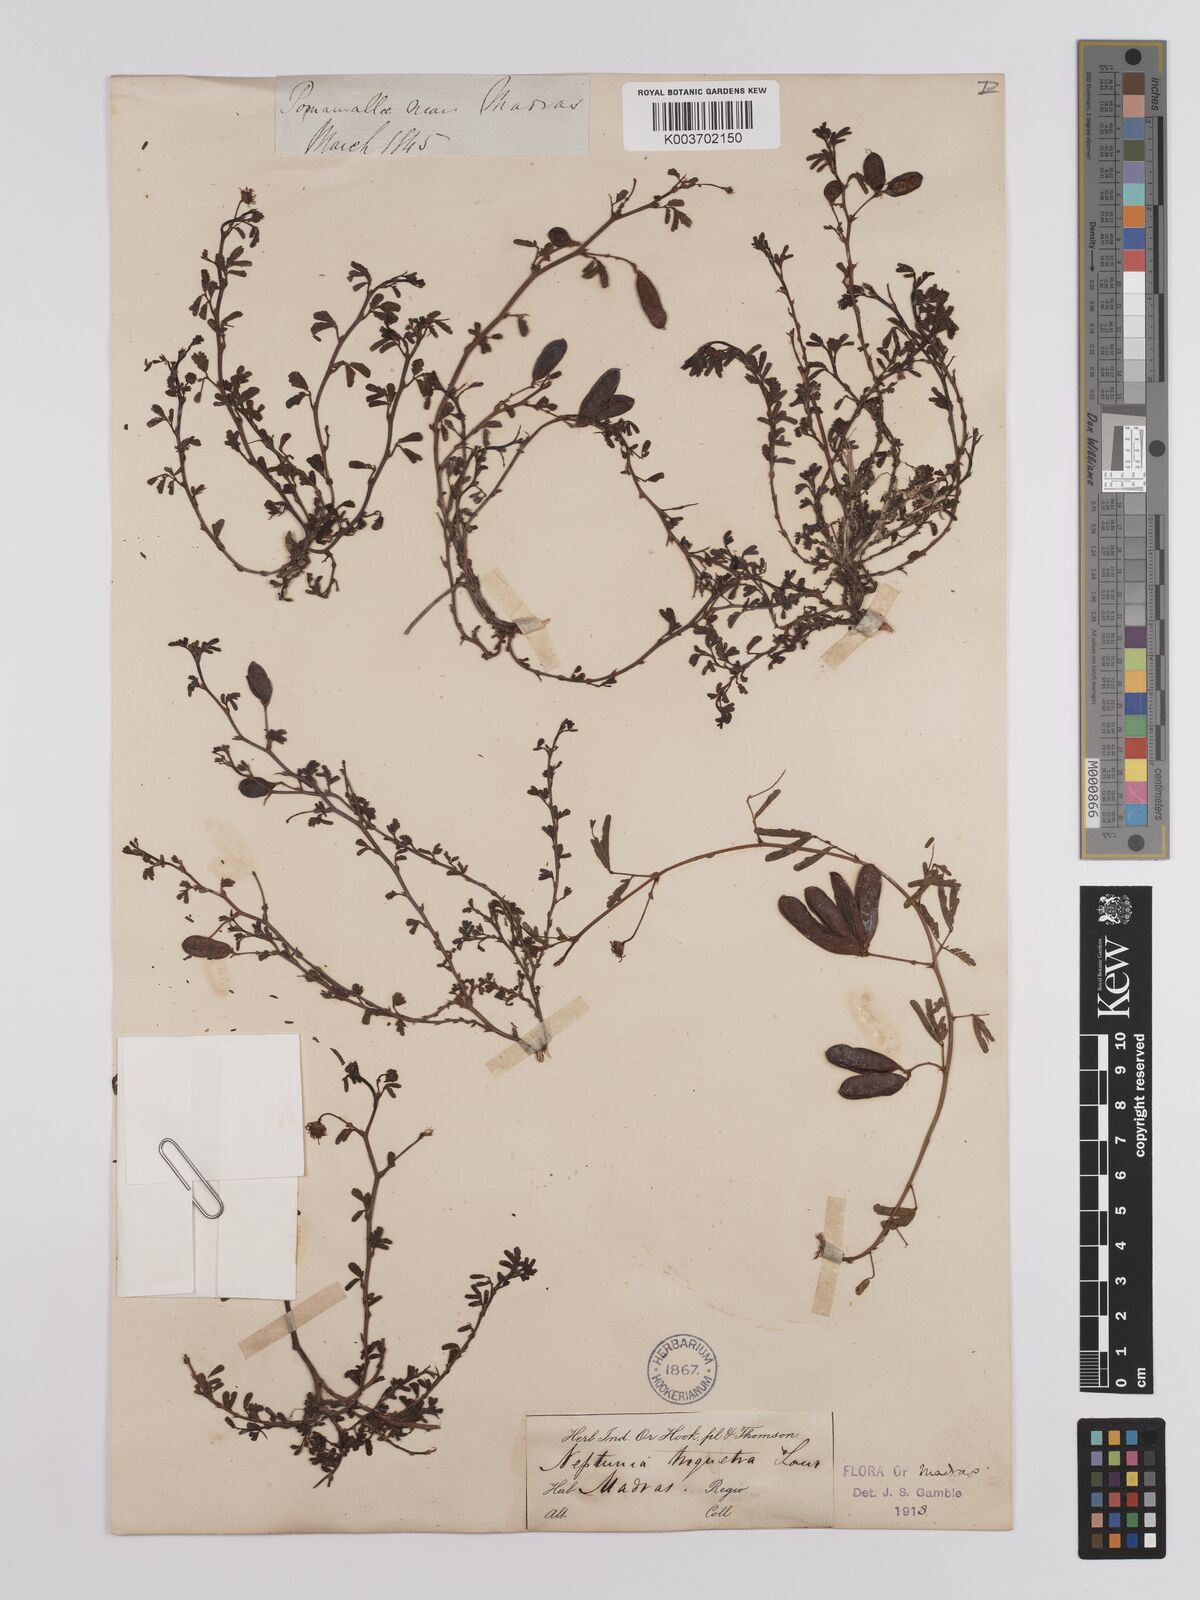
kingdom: Plantae
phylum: Tracheophyta
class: Magnoliopsida
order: Fabales
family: Fabaceae
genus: Neptunia
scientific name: Neptunia triquetra
